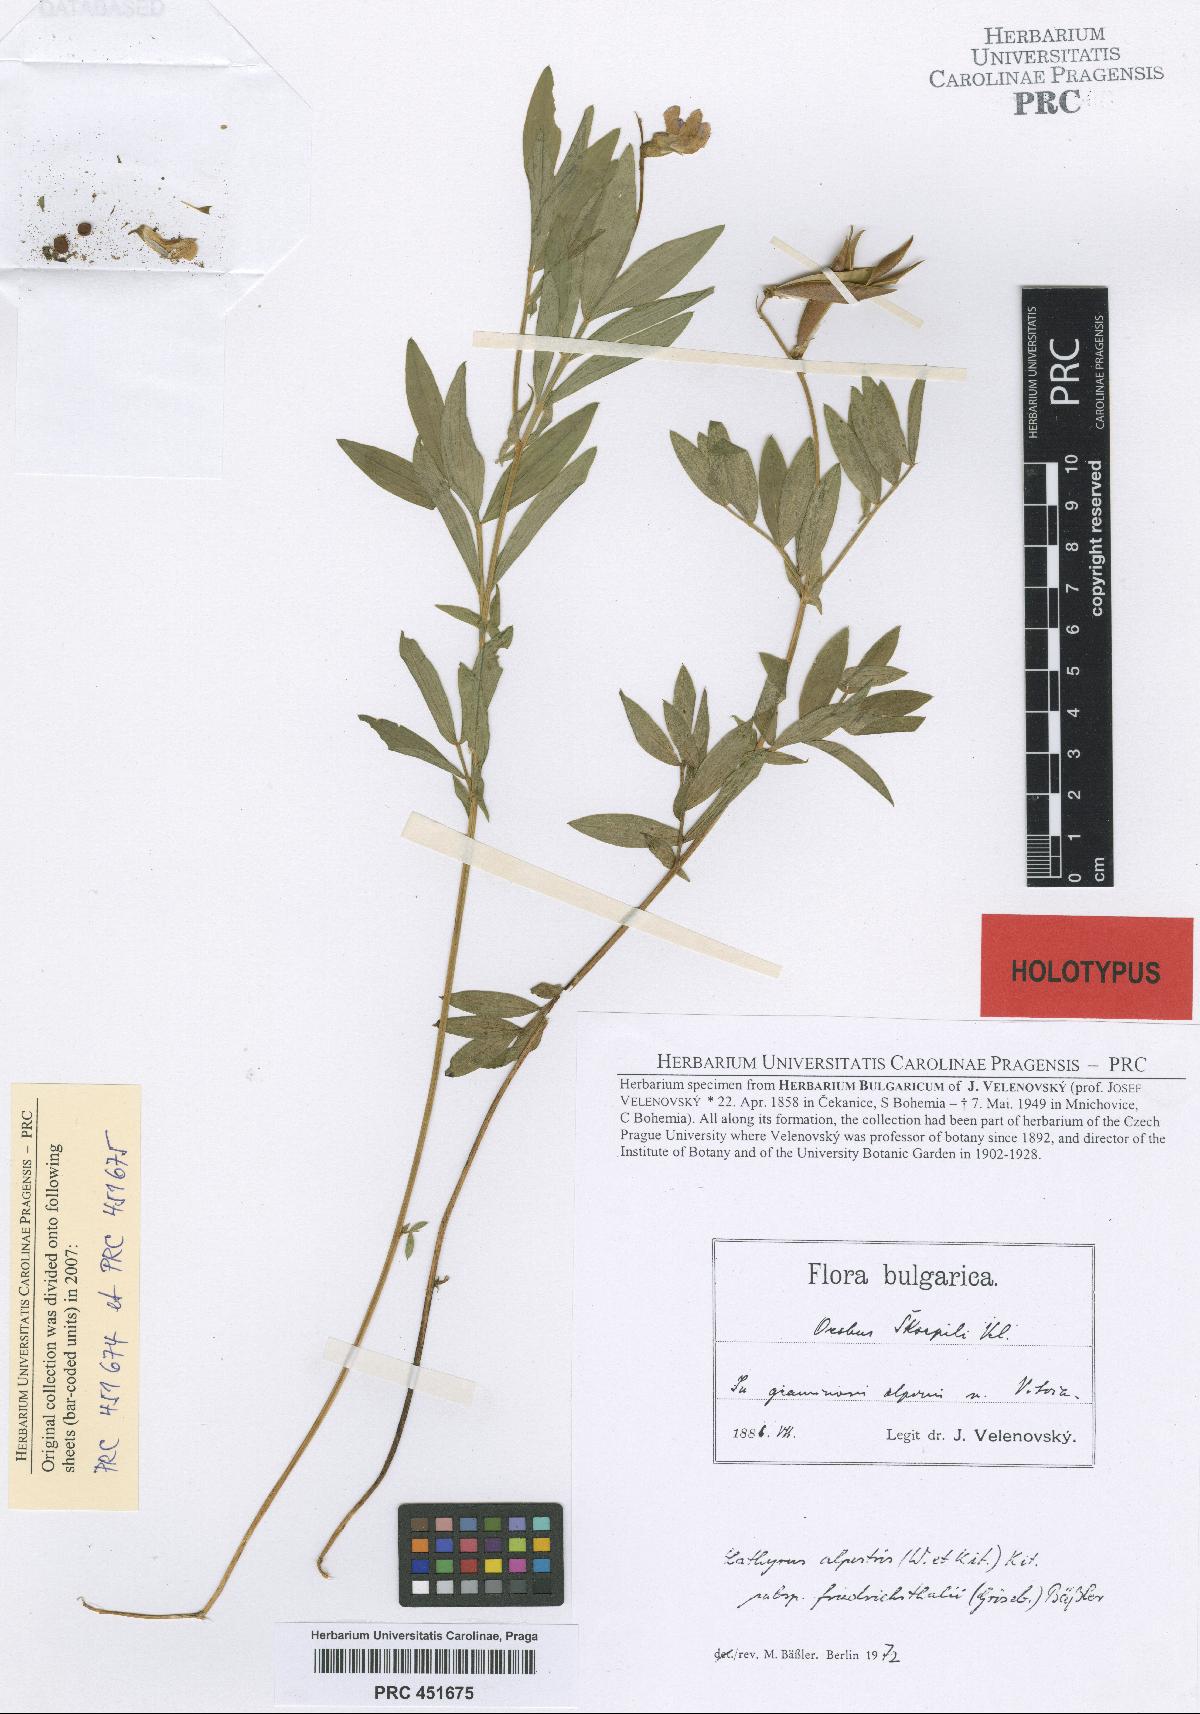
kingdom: Plantae
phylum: Tracheophyta
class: Magnoliopsida
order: Fabales
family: Fabaceae
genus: Lathyrus
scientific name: Lathyrus alpestris
